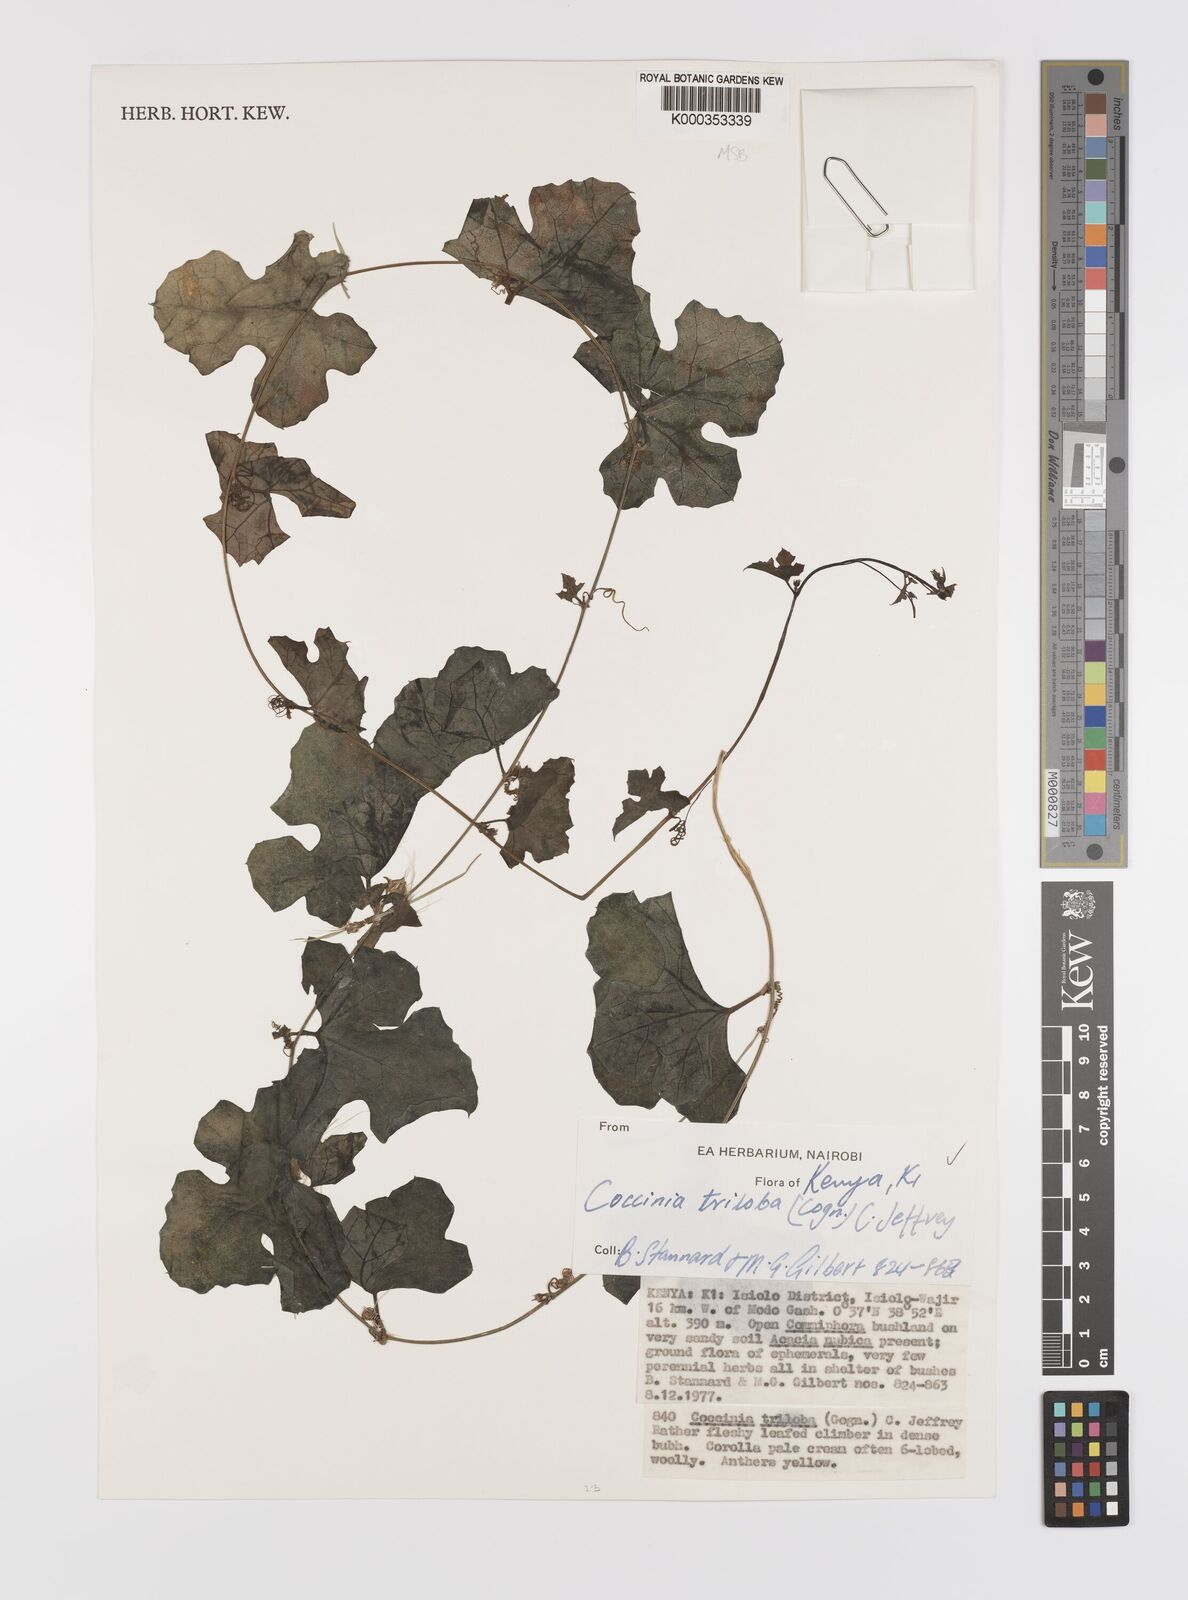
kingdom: Plantae
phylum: Tracheophyta
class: Magnoliopsida
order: Cucurbitales
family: Cucurbitaceae
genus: Coccinia
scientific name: Coccinia trilobata
